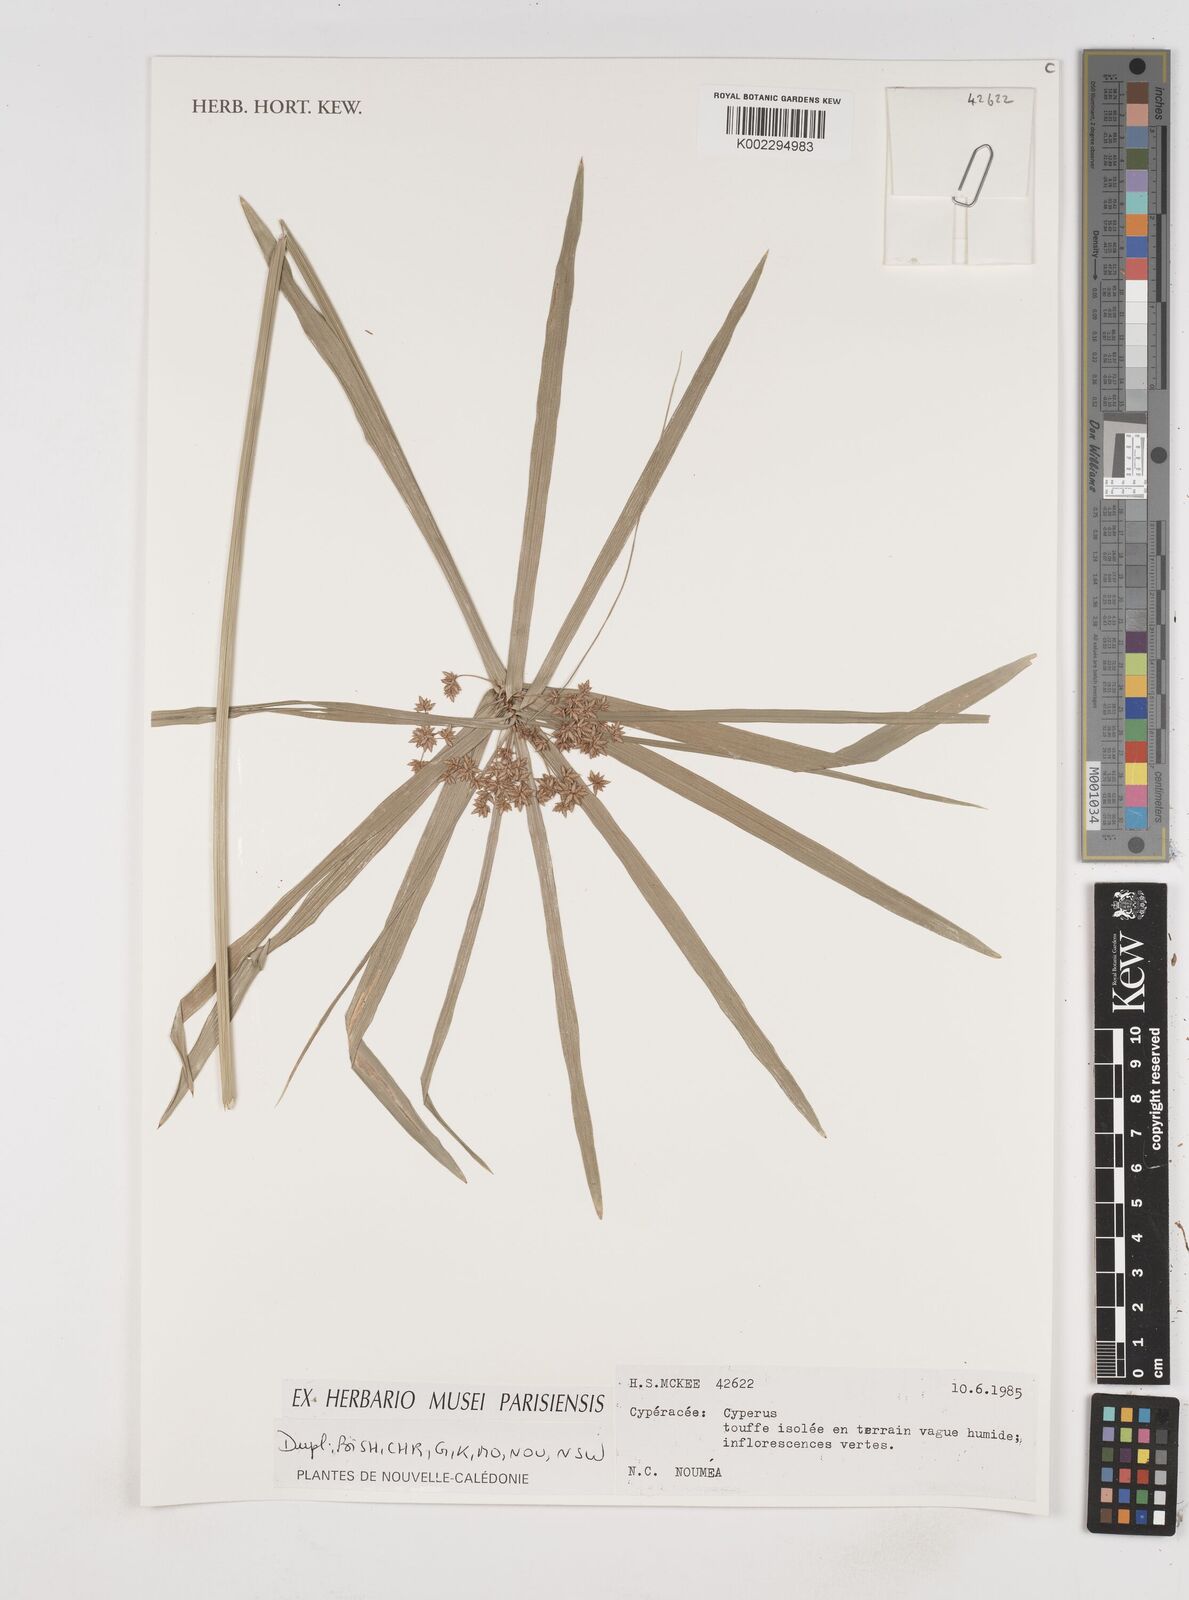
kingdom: Plantae
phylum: Tracheophyta
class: Liliopsida
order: Poales
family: Cyperaceae
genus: Cyperus
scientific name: Cyperus
